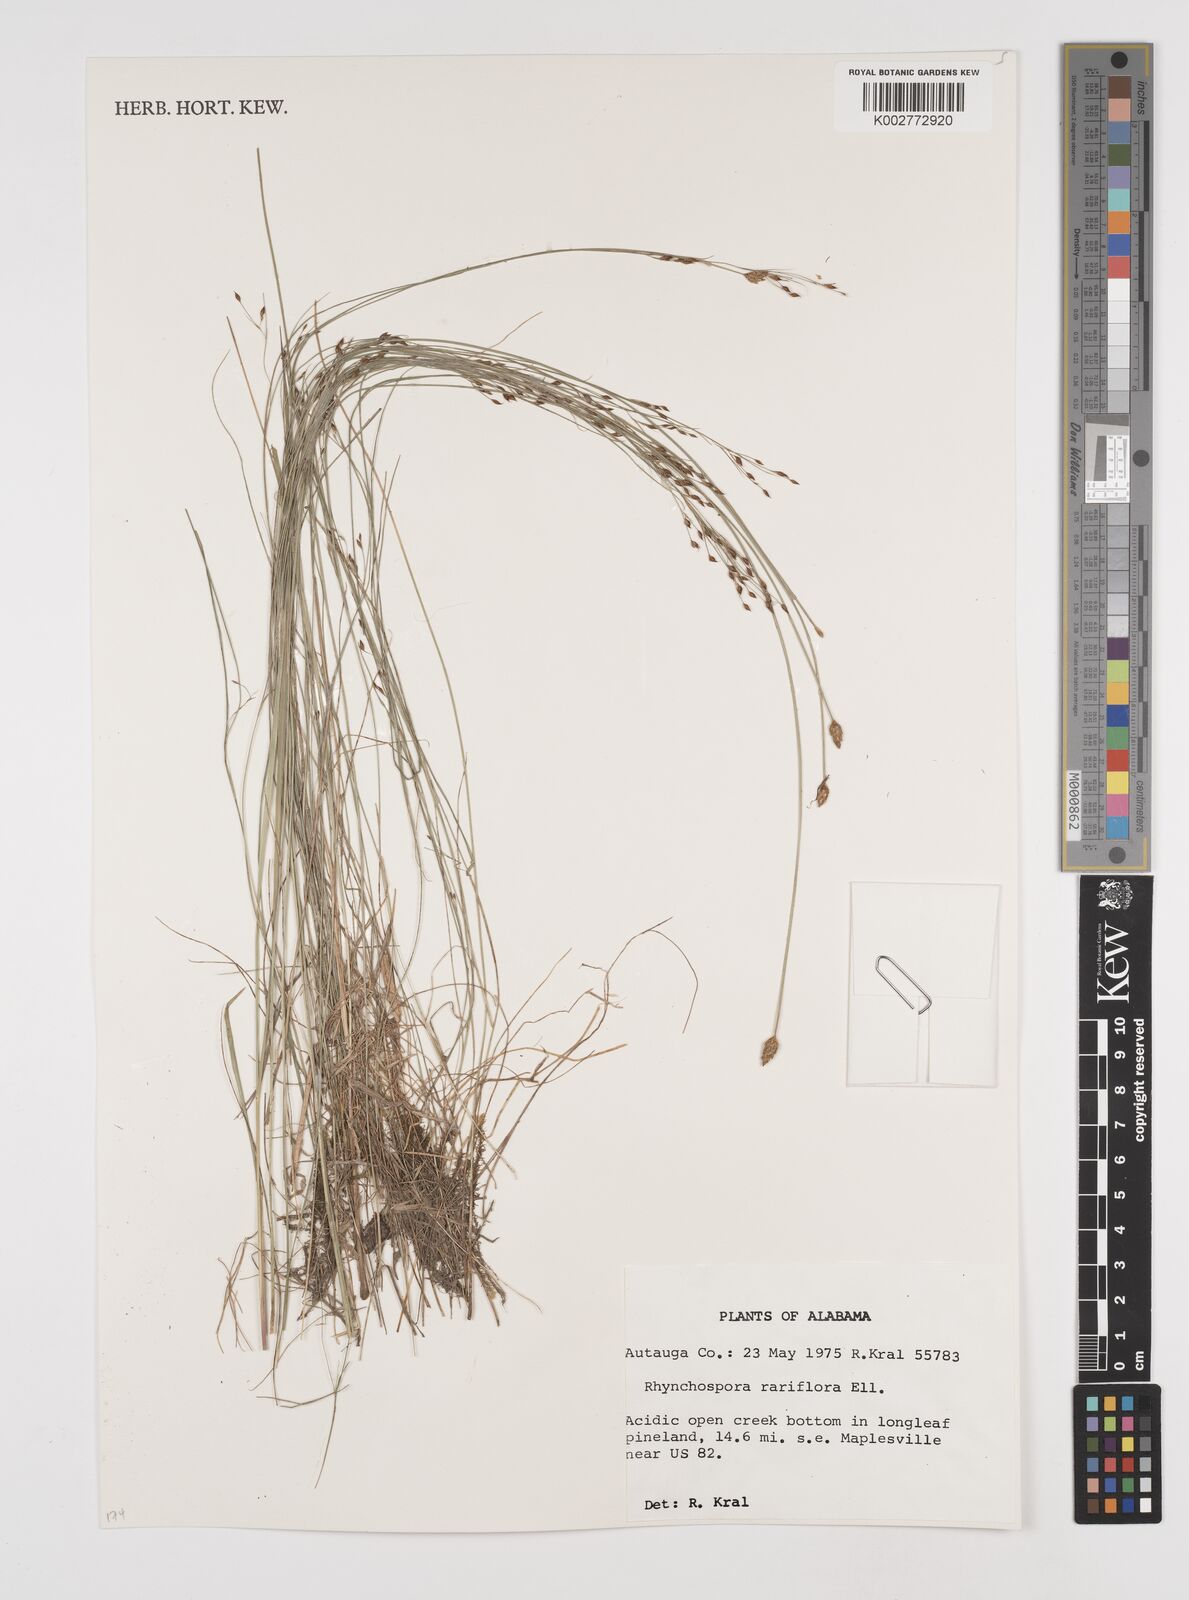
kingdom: Plantae
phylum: Tracheophyta
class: Liliopsida
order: Poales
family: Cyperaceae
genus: Rhynchospora
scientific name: Rhynchospora rariflora
